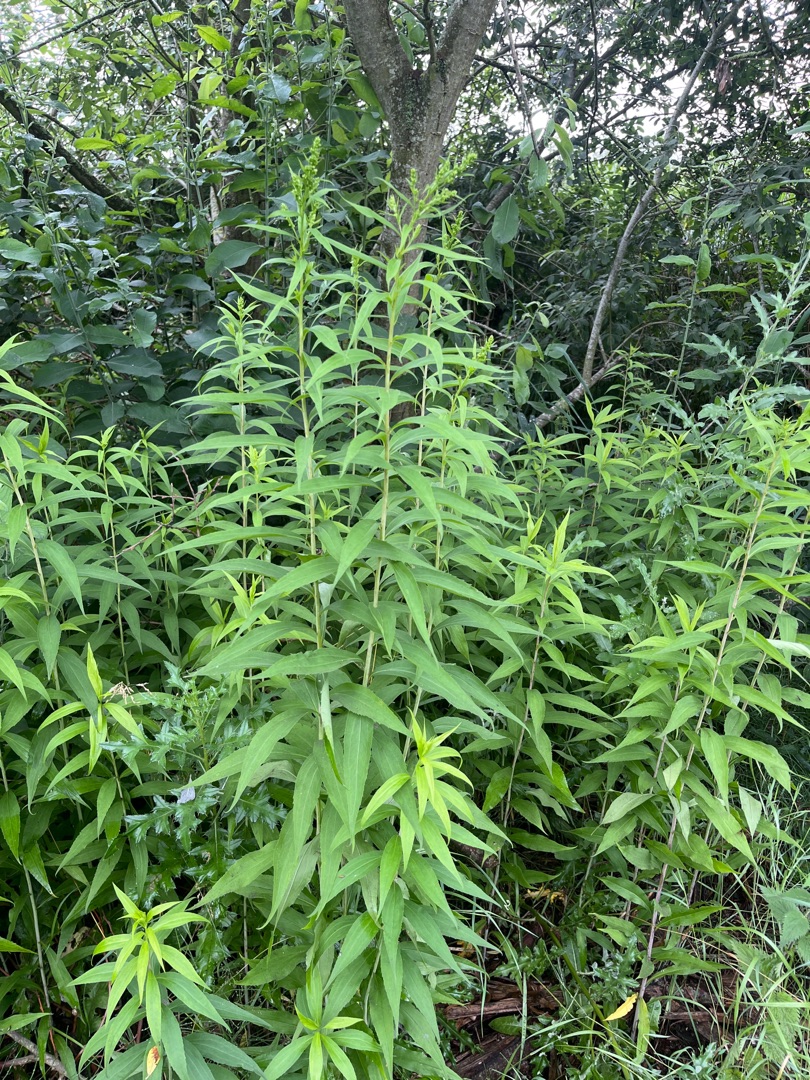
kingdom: Plantae
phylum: Tracheophyta
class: Magnoliopsida
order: Asterales
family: Asteraceae
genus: Solidago
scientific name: Solidago gigantea
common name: Sildig gyldenris
